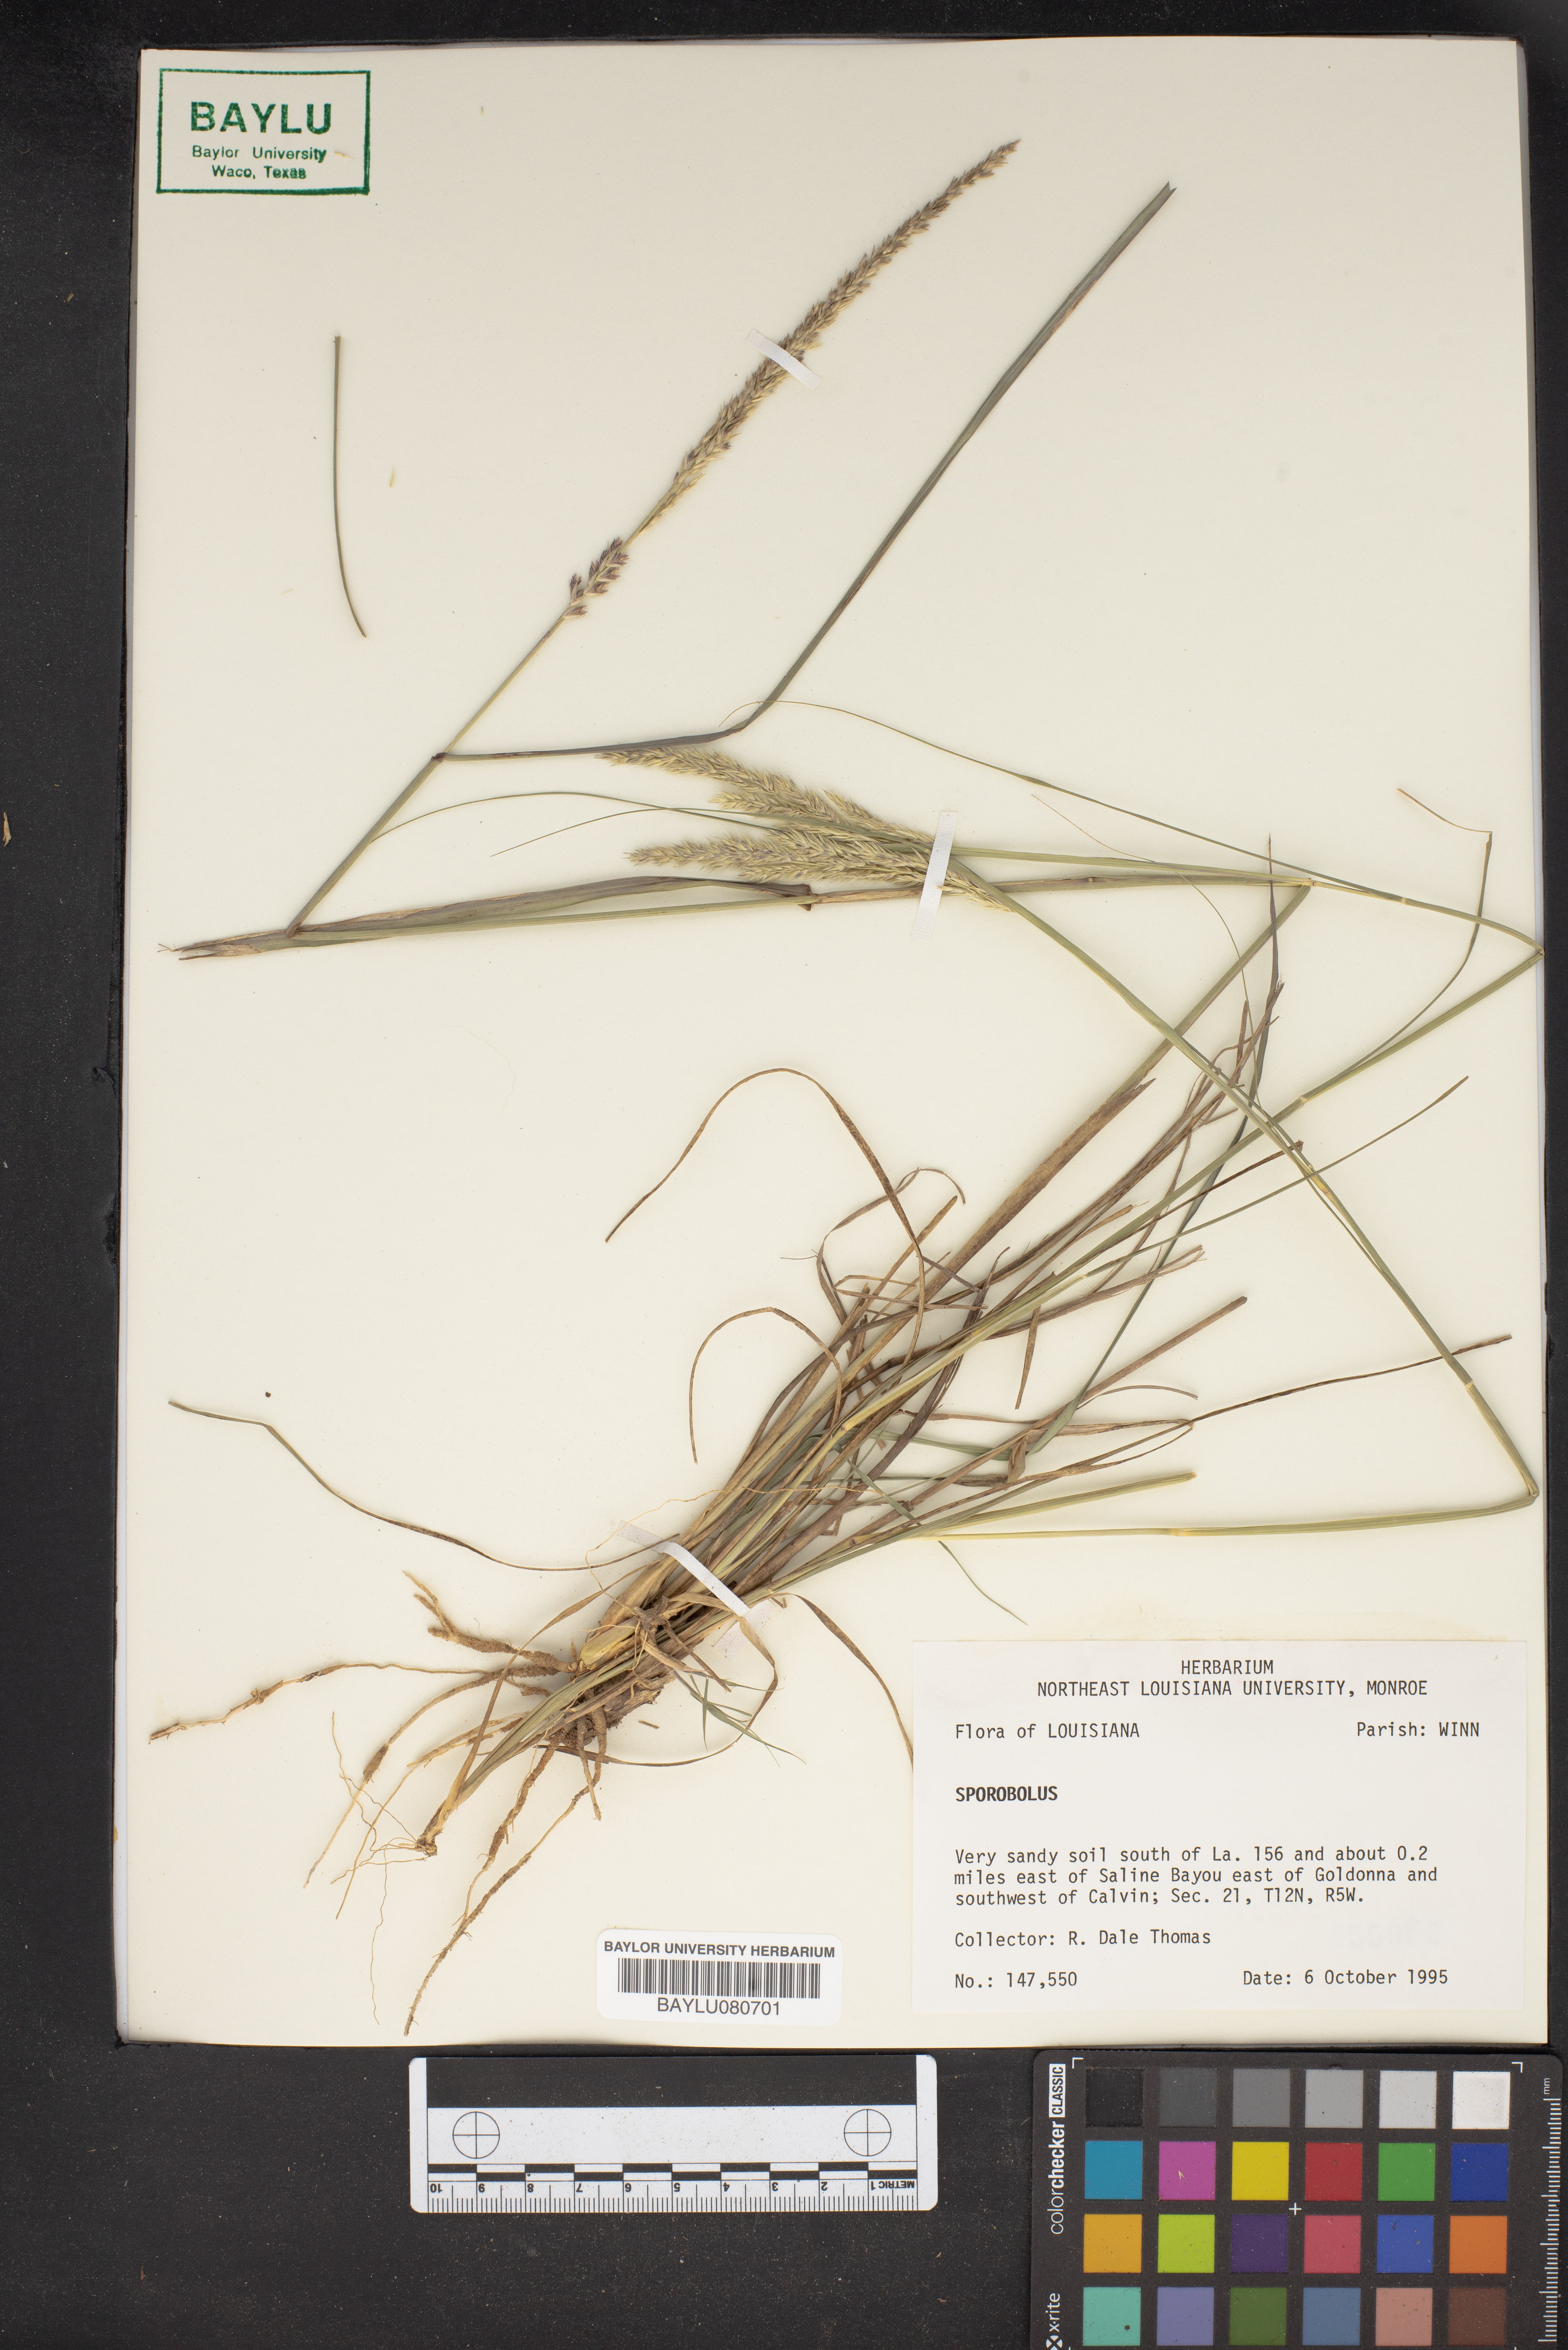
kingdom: Plantae
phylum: Tracheophyta
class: Liliopsida
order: Poales
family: Poaceae
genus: Sporobolus
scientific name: Sporobolus
